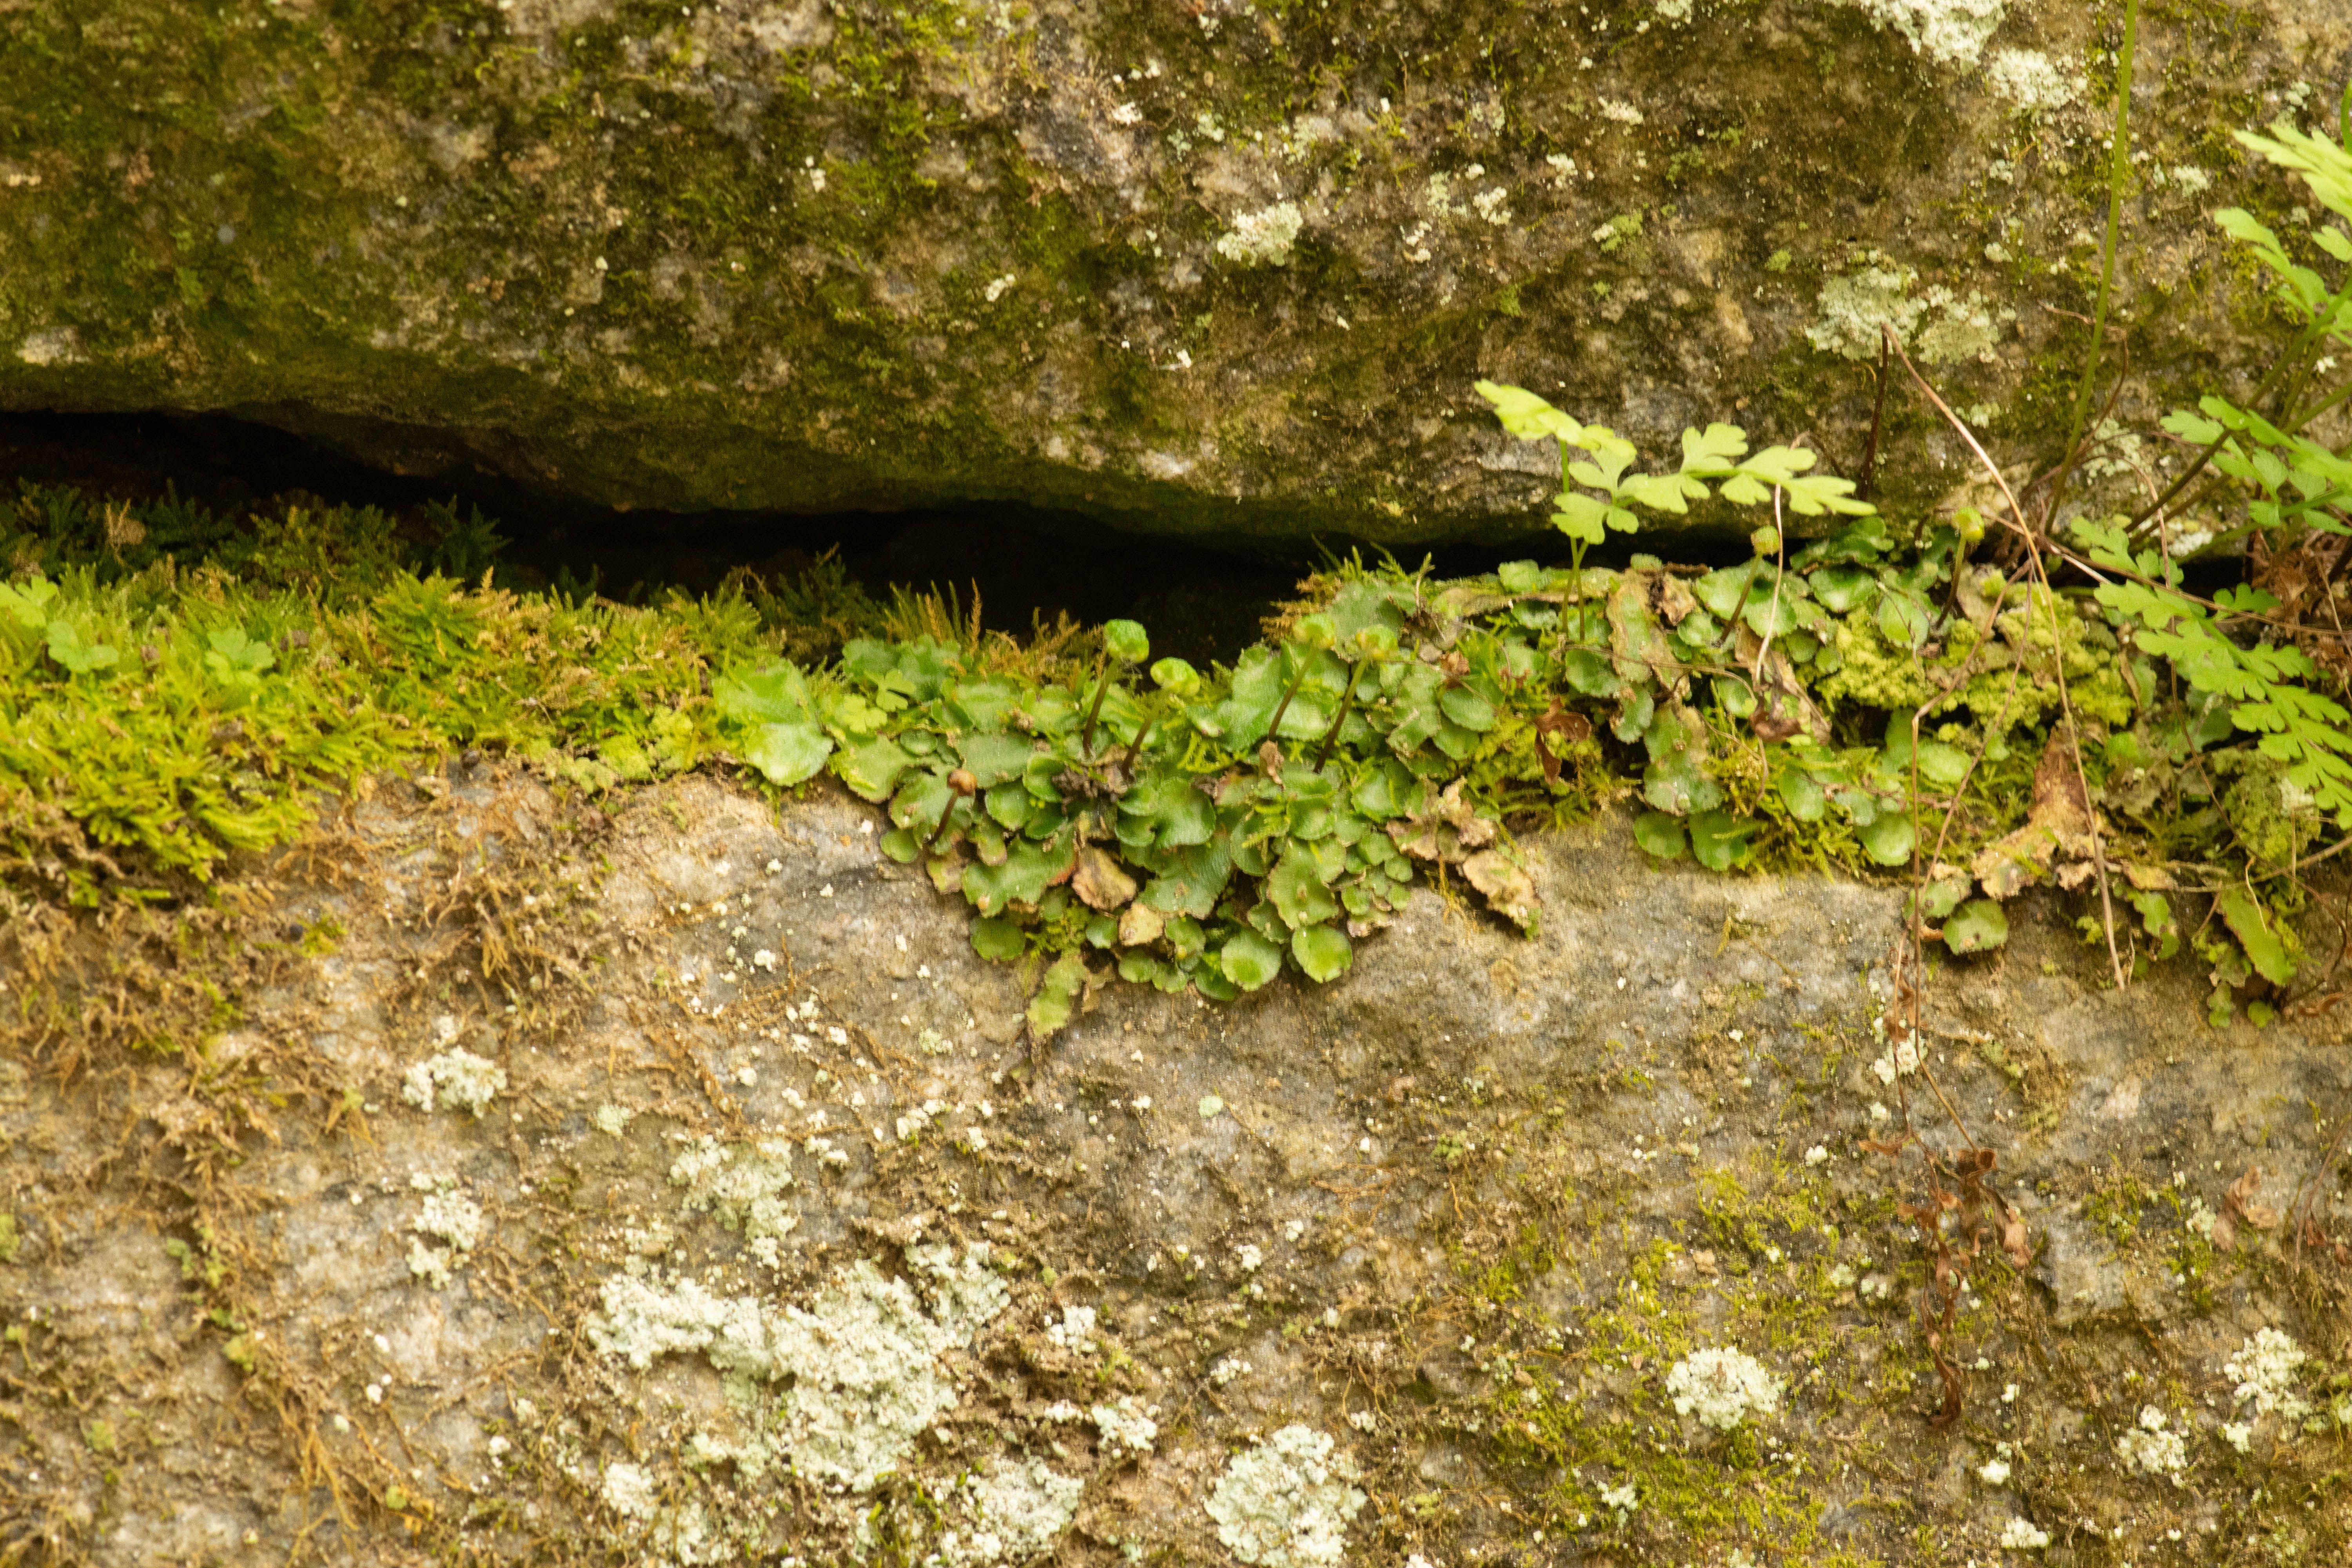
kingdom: Plantae
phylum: Marchantiophyta
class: Marchantiopsida
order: Marchantiales
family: Aytoniaceae
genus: Reboulia
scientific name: Reboulia hemisphaerica
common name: Purple-margined liverwort
